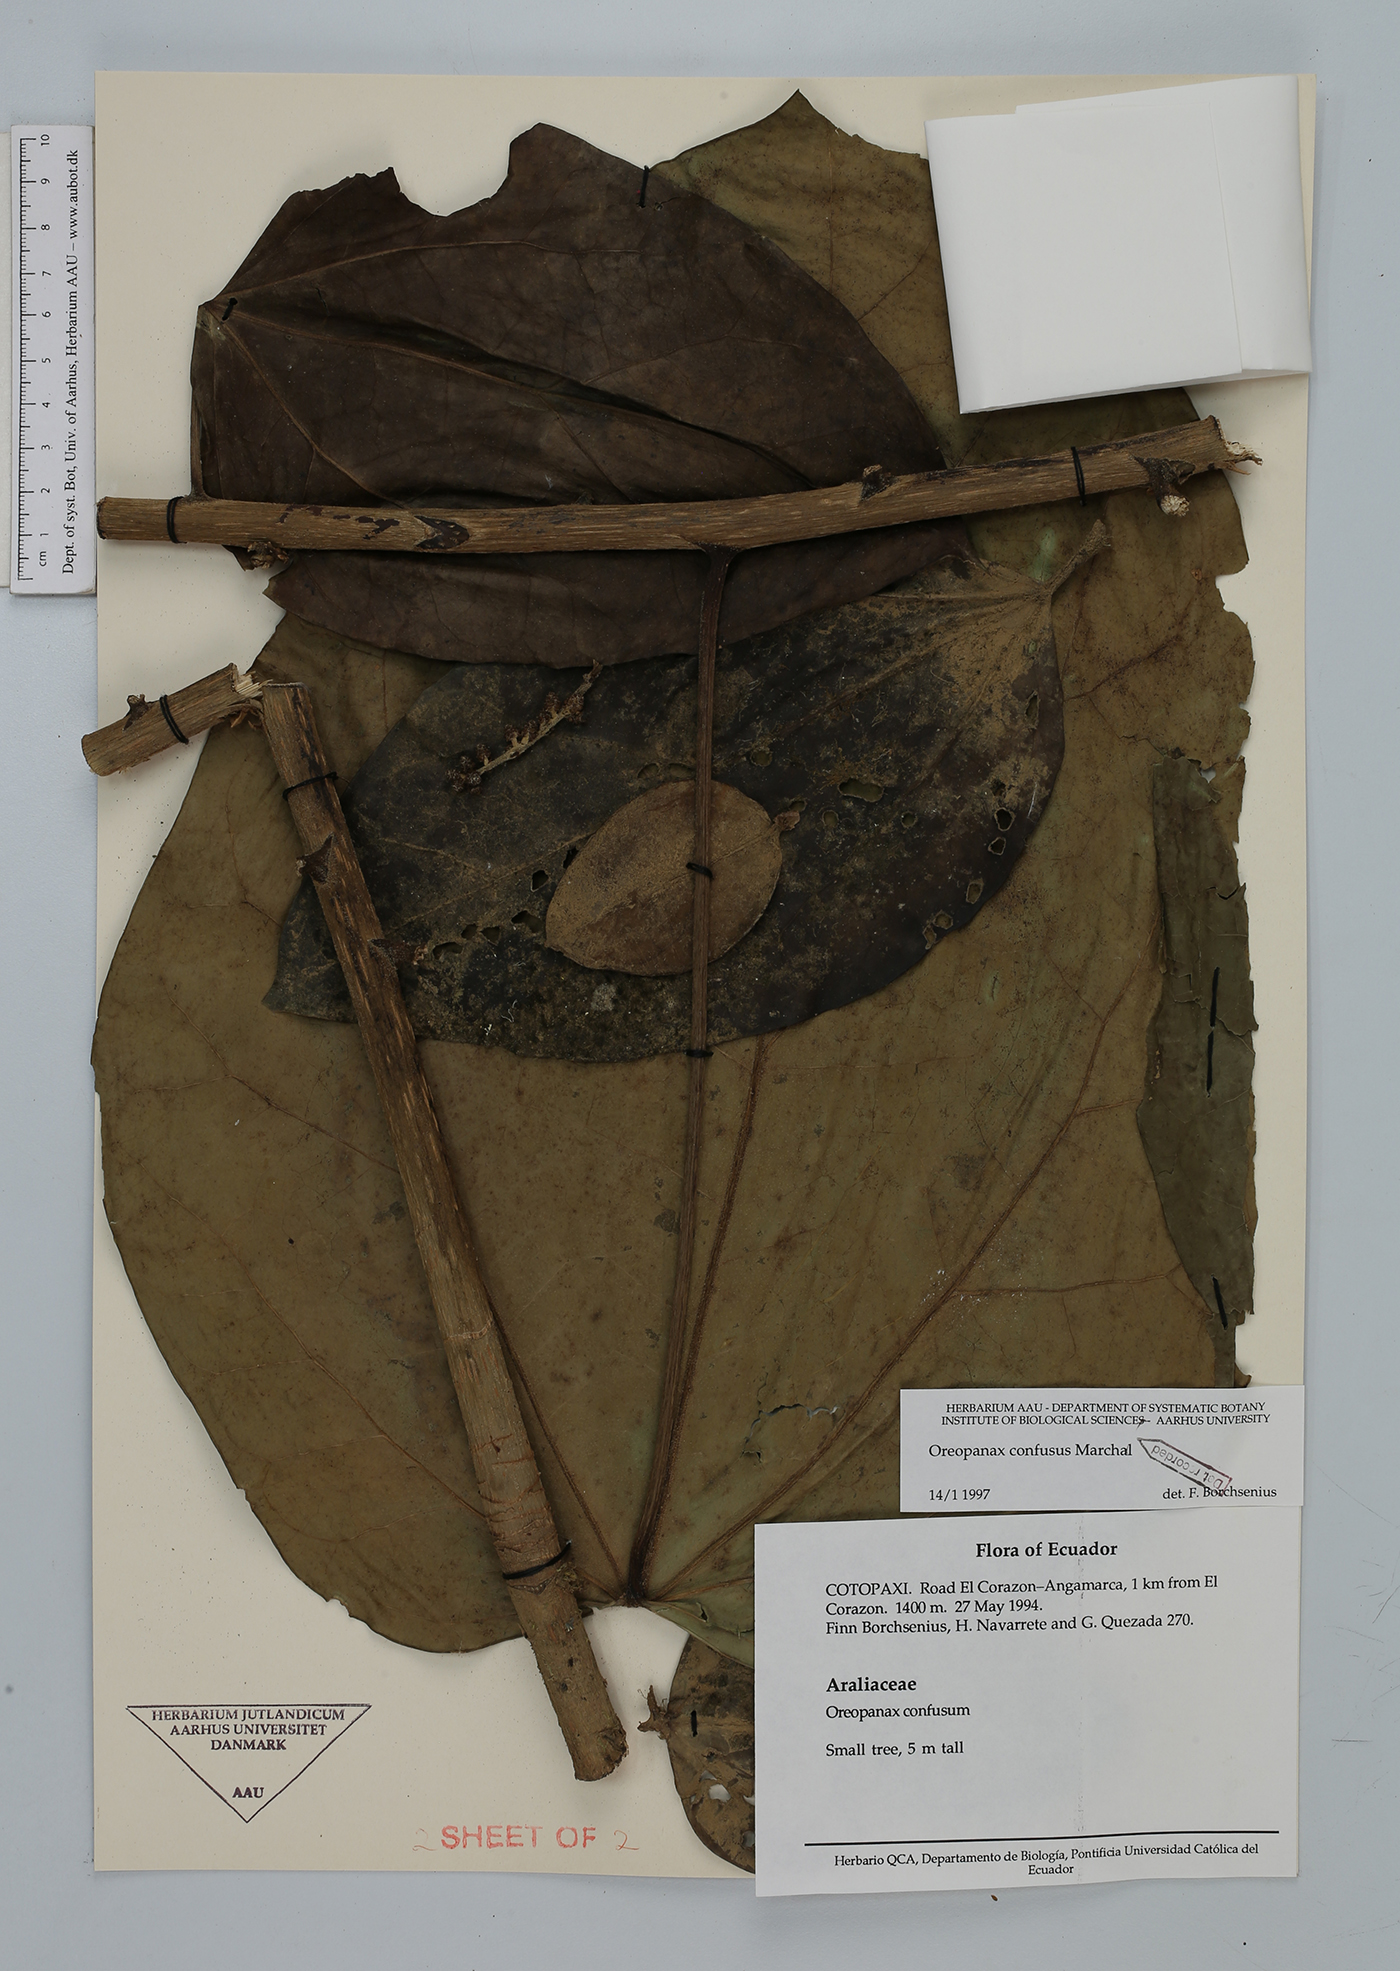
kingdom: Plantae
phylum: Tracheophyta
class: Magnoliopsida
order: Apiales
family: Araliaceae
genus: Oreopanax
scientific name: Oreopanax confusus
